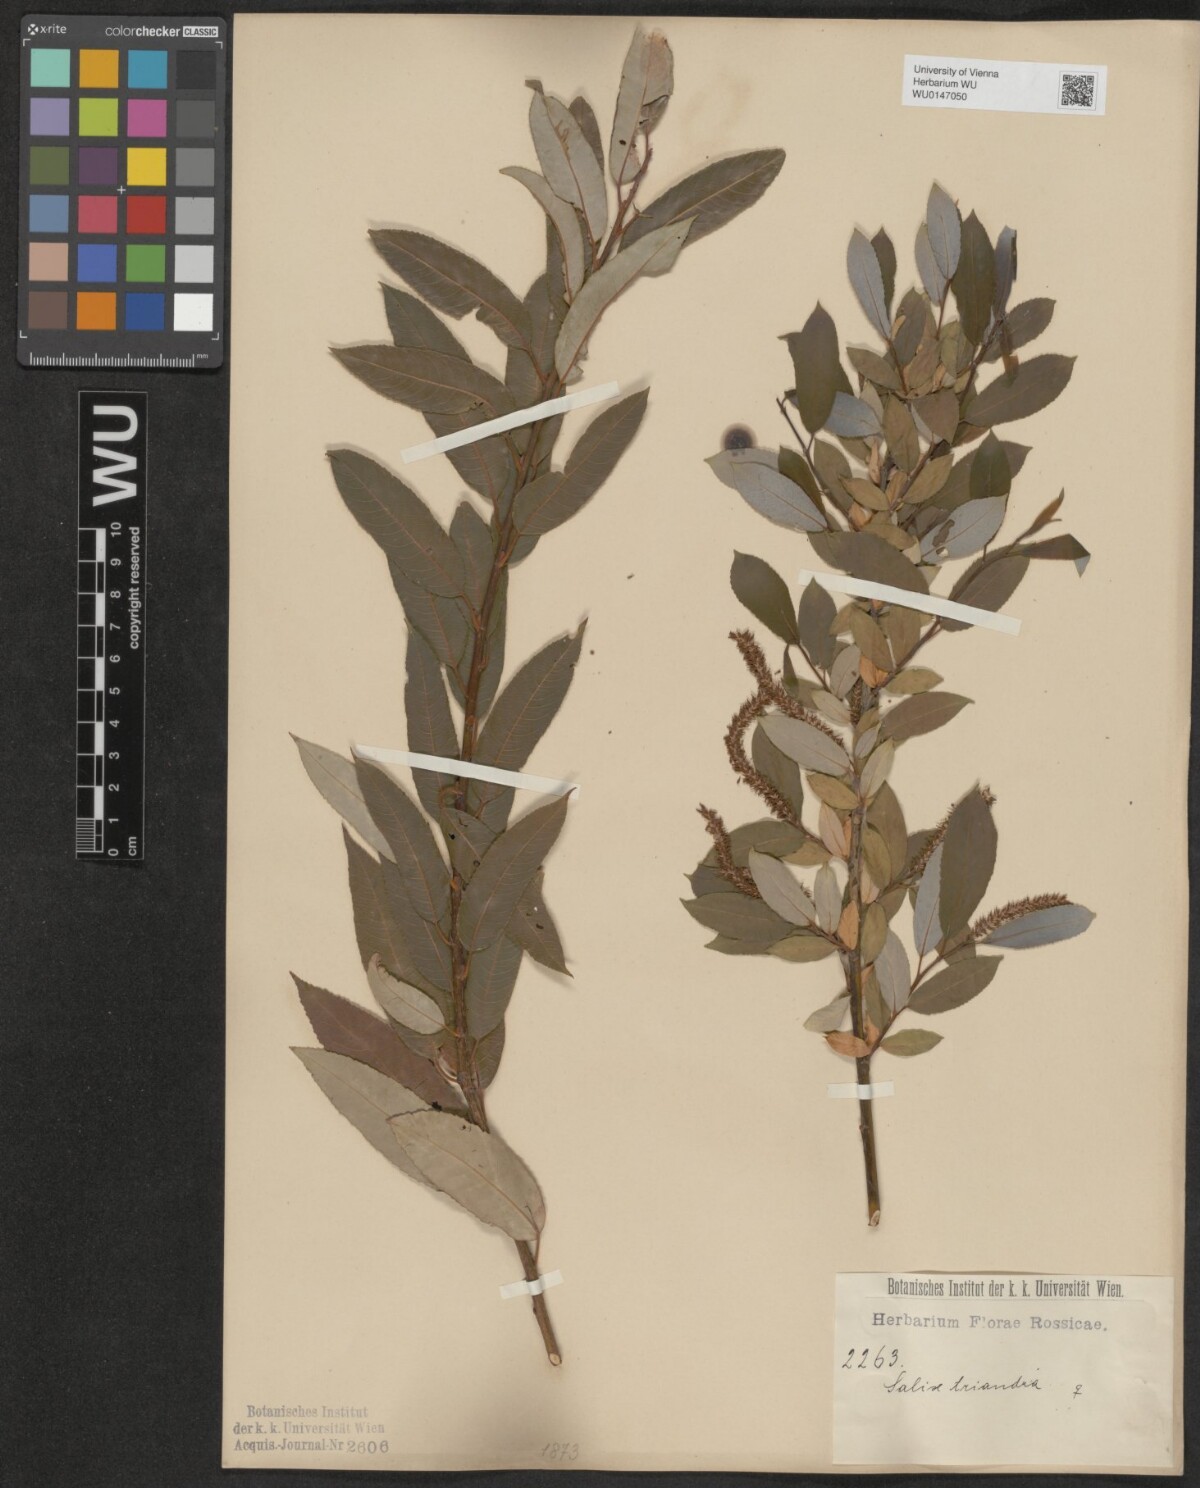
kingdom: Plantae
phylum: Tracheophyta
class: Magnoliopsida
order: Malpighiales
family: Salicaceae
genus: Salix
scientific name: Salix triandra
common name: Almond willow
